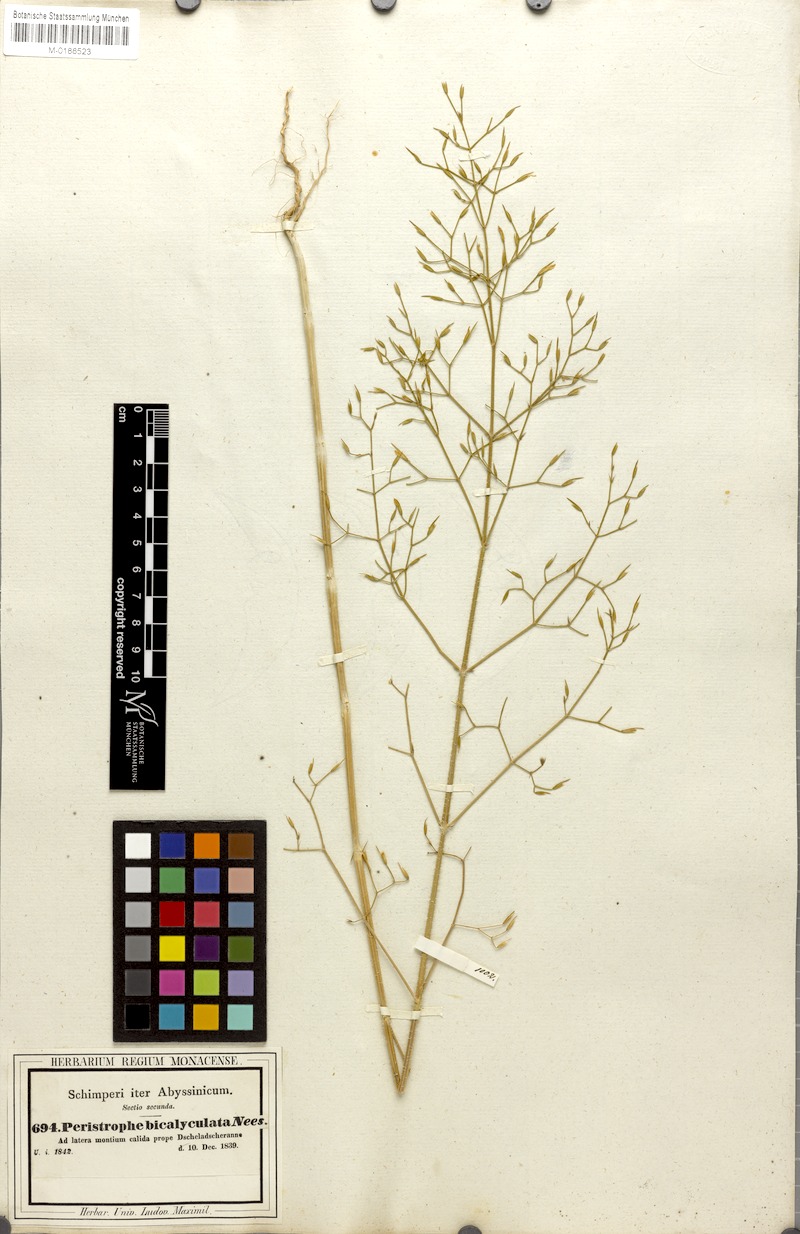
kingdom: Plantae
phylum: Tracheophyta
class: Magnoliopsida
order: Lamiales
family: Acanthaceae
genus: Dicliptera
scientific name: Dicliptera paniculata
